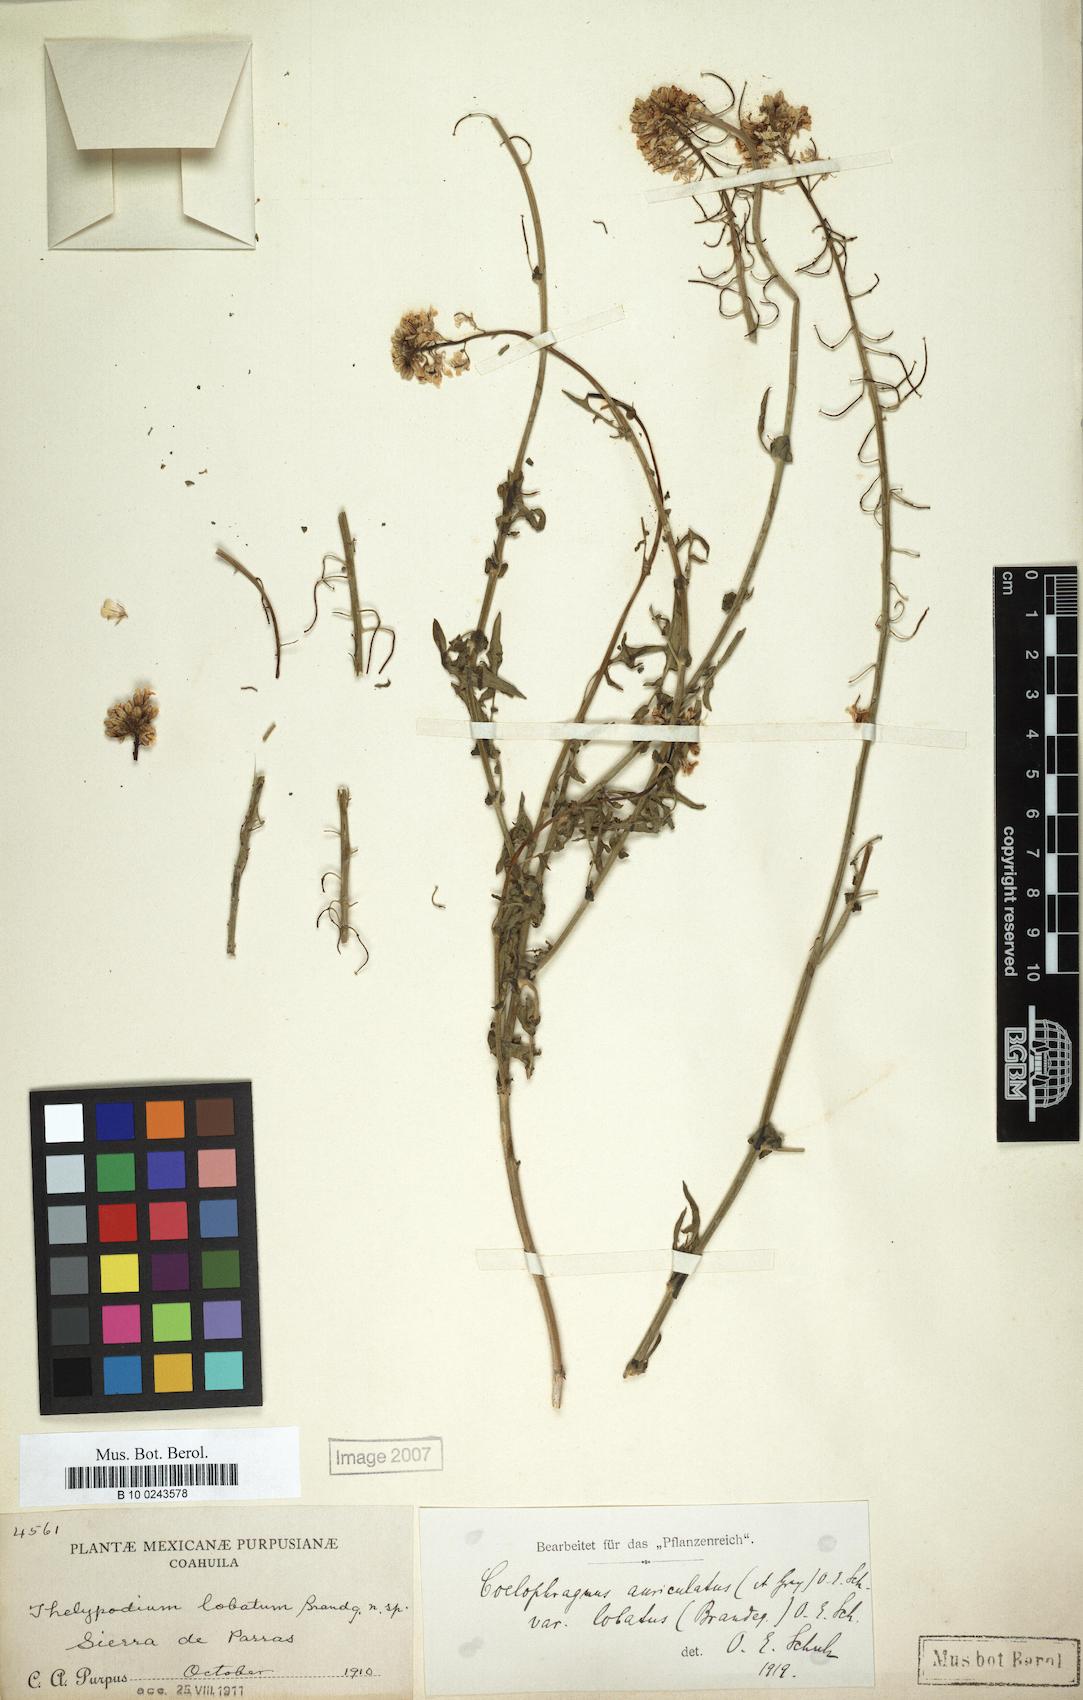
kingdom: Plantae
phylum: Tracheophyta
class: Magnoliopsida
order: Brassicales
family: Brassicaceae
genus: Dryopetalon
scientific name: Dryopetalon auriculatum
